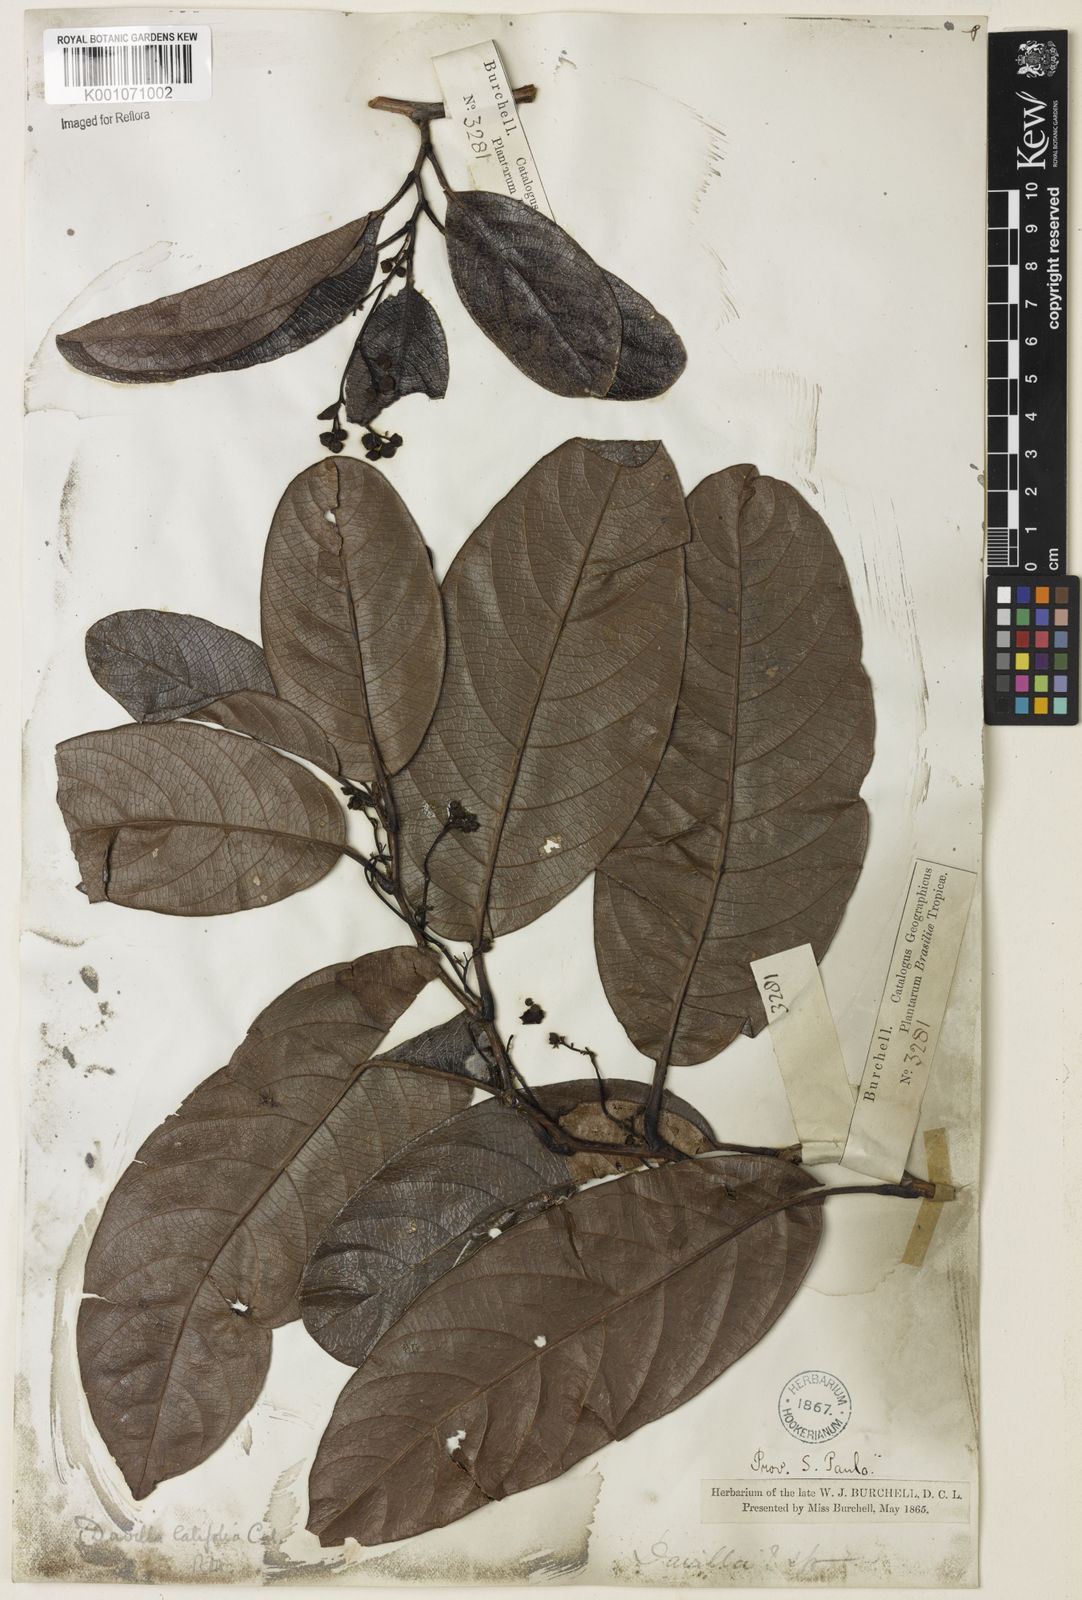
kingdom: Plantae
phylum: Tracheophyta
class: Magnoliopsida
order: Dilleniales
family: Dilleniaceae
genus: Davilla
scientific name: Davilla latifolia
